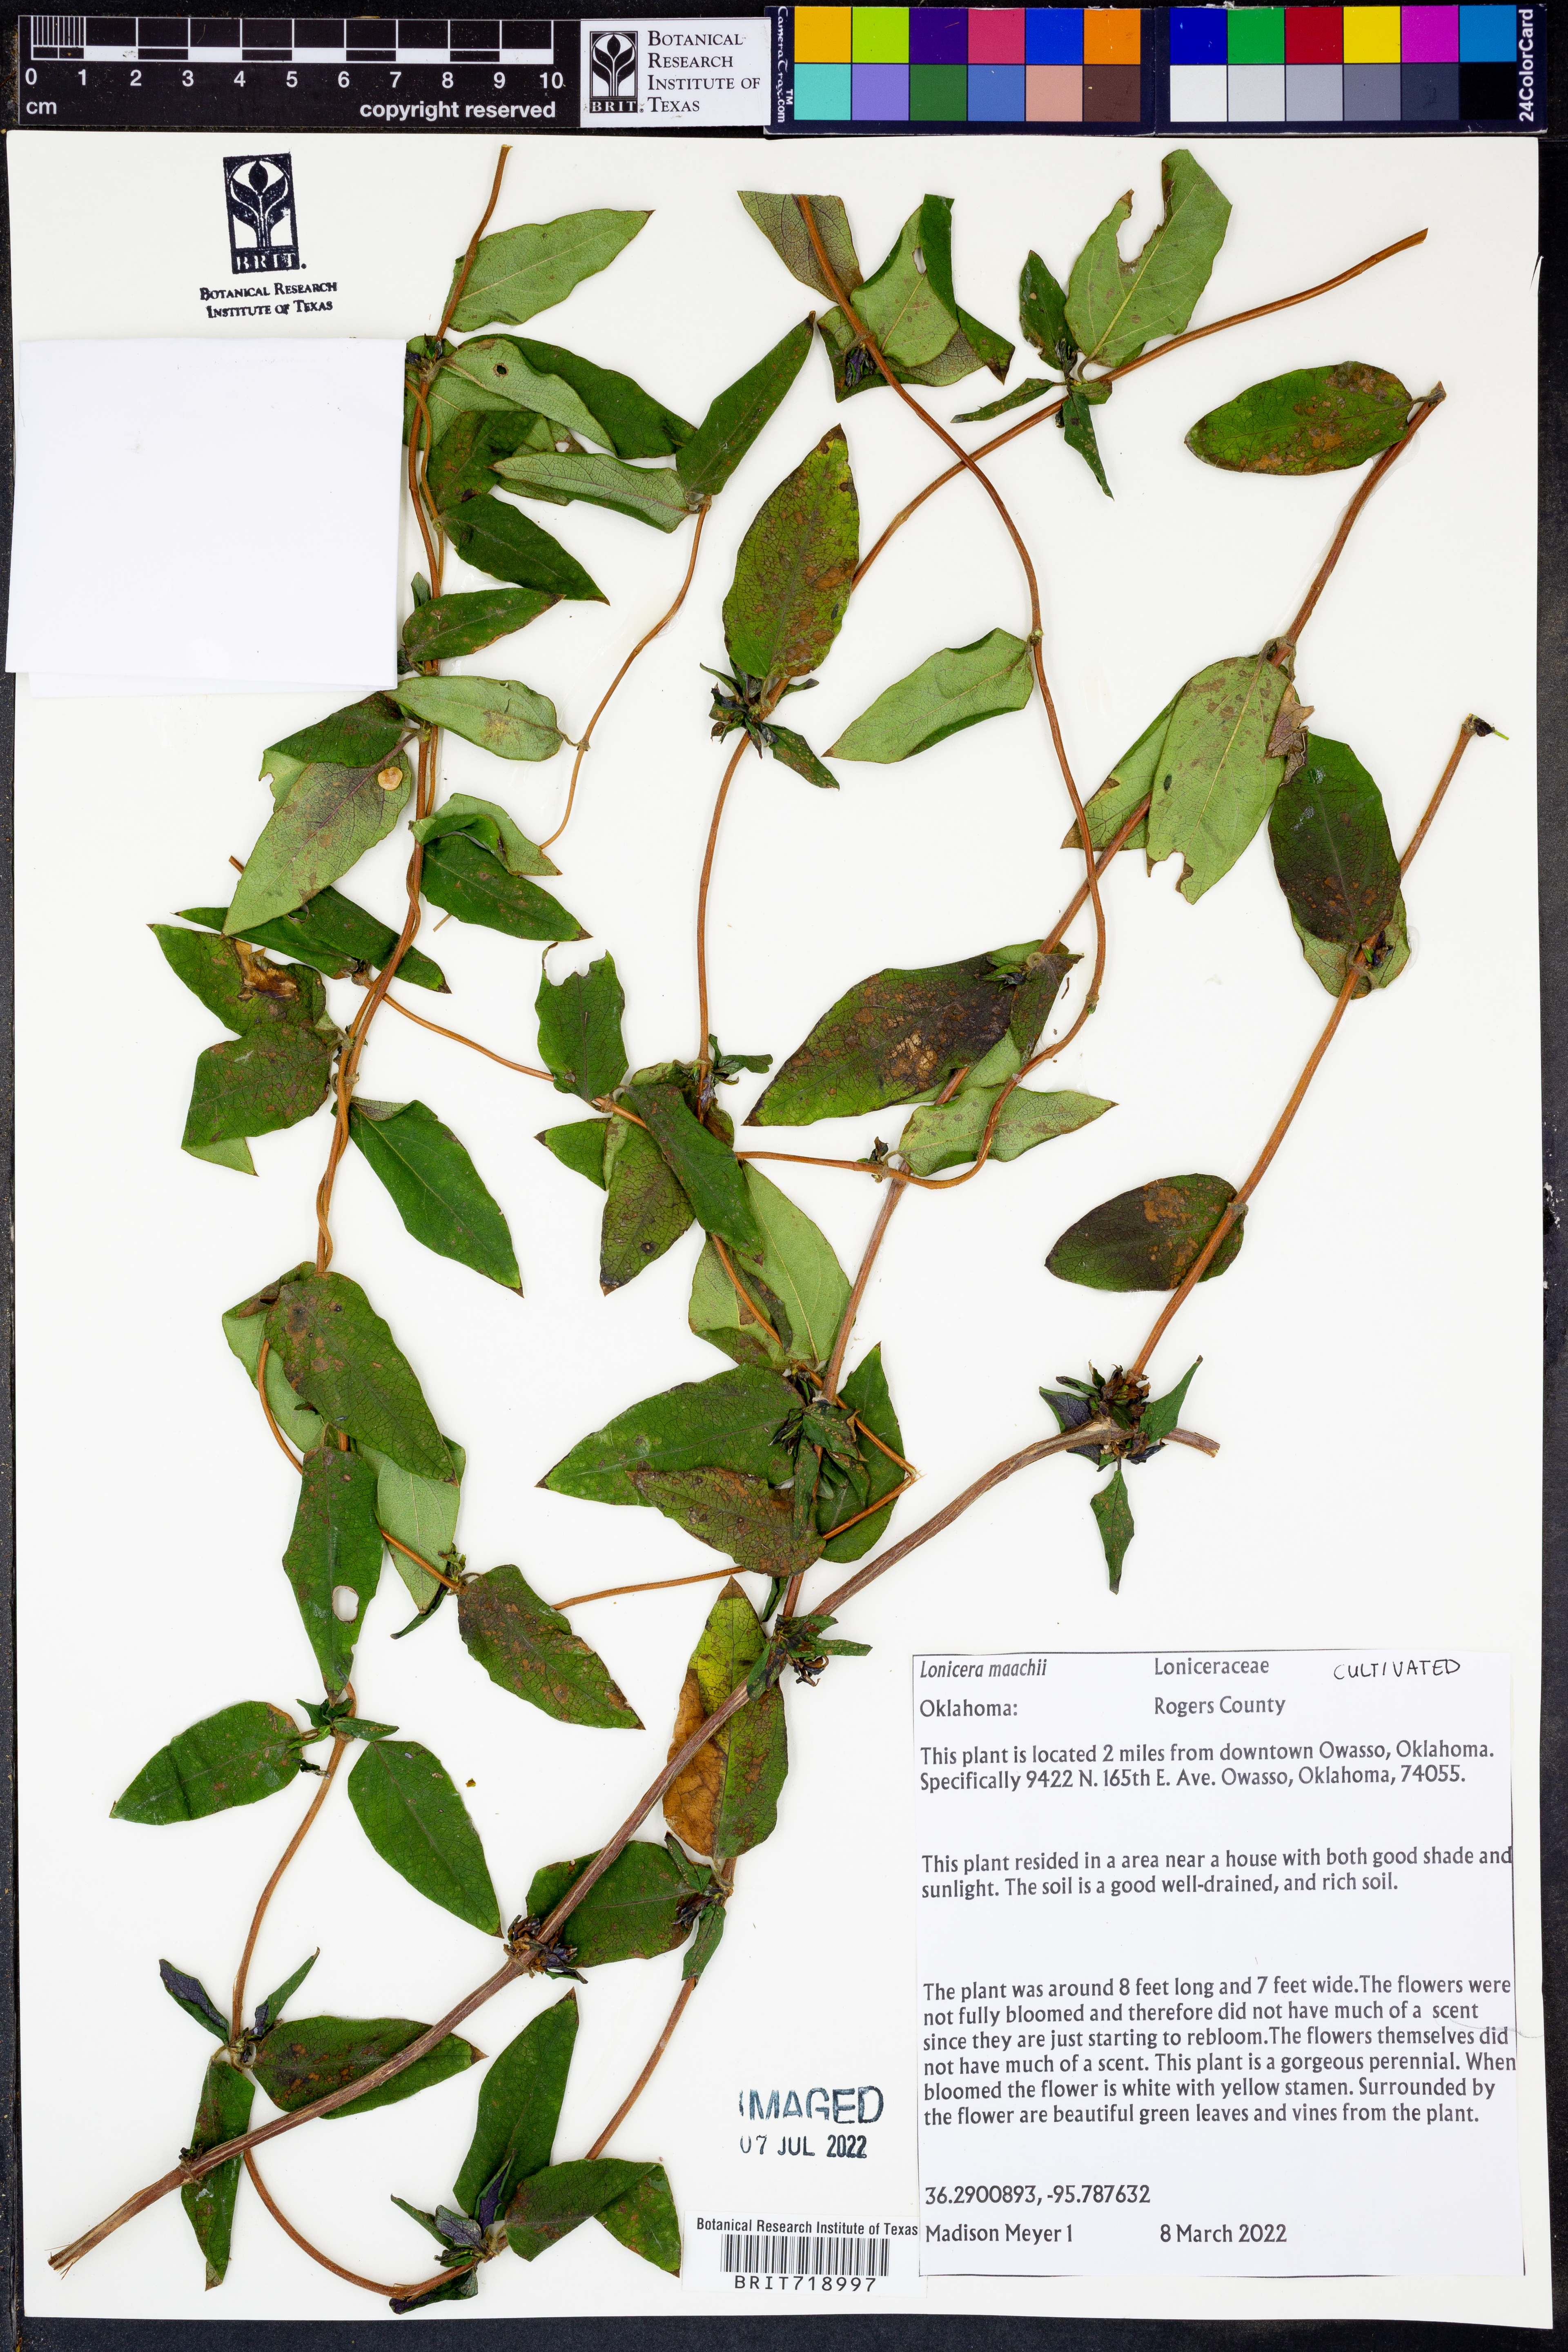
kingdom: Plantae
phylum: Tracheophyta
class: Magnoliopsida
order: Dipsacales
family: Caprifoliaceae
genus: Lonicera
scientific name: Lonicera maackii
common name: Amur honeysuckle
